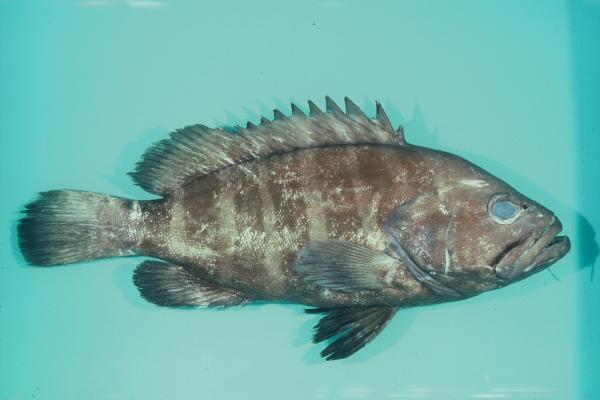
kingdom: Animalia
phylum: Chordata
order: Perciformes
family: Serranidae
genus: Hyporthodus
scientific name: Hyporthodus mystacinus
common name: Bigeyed grouper
